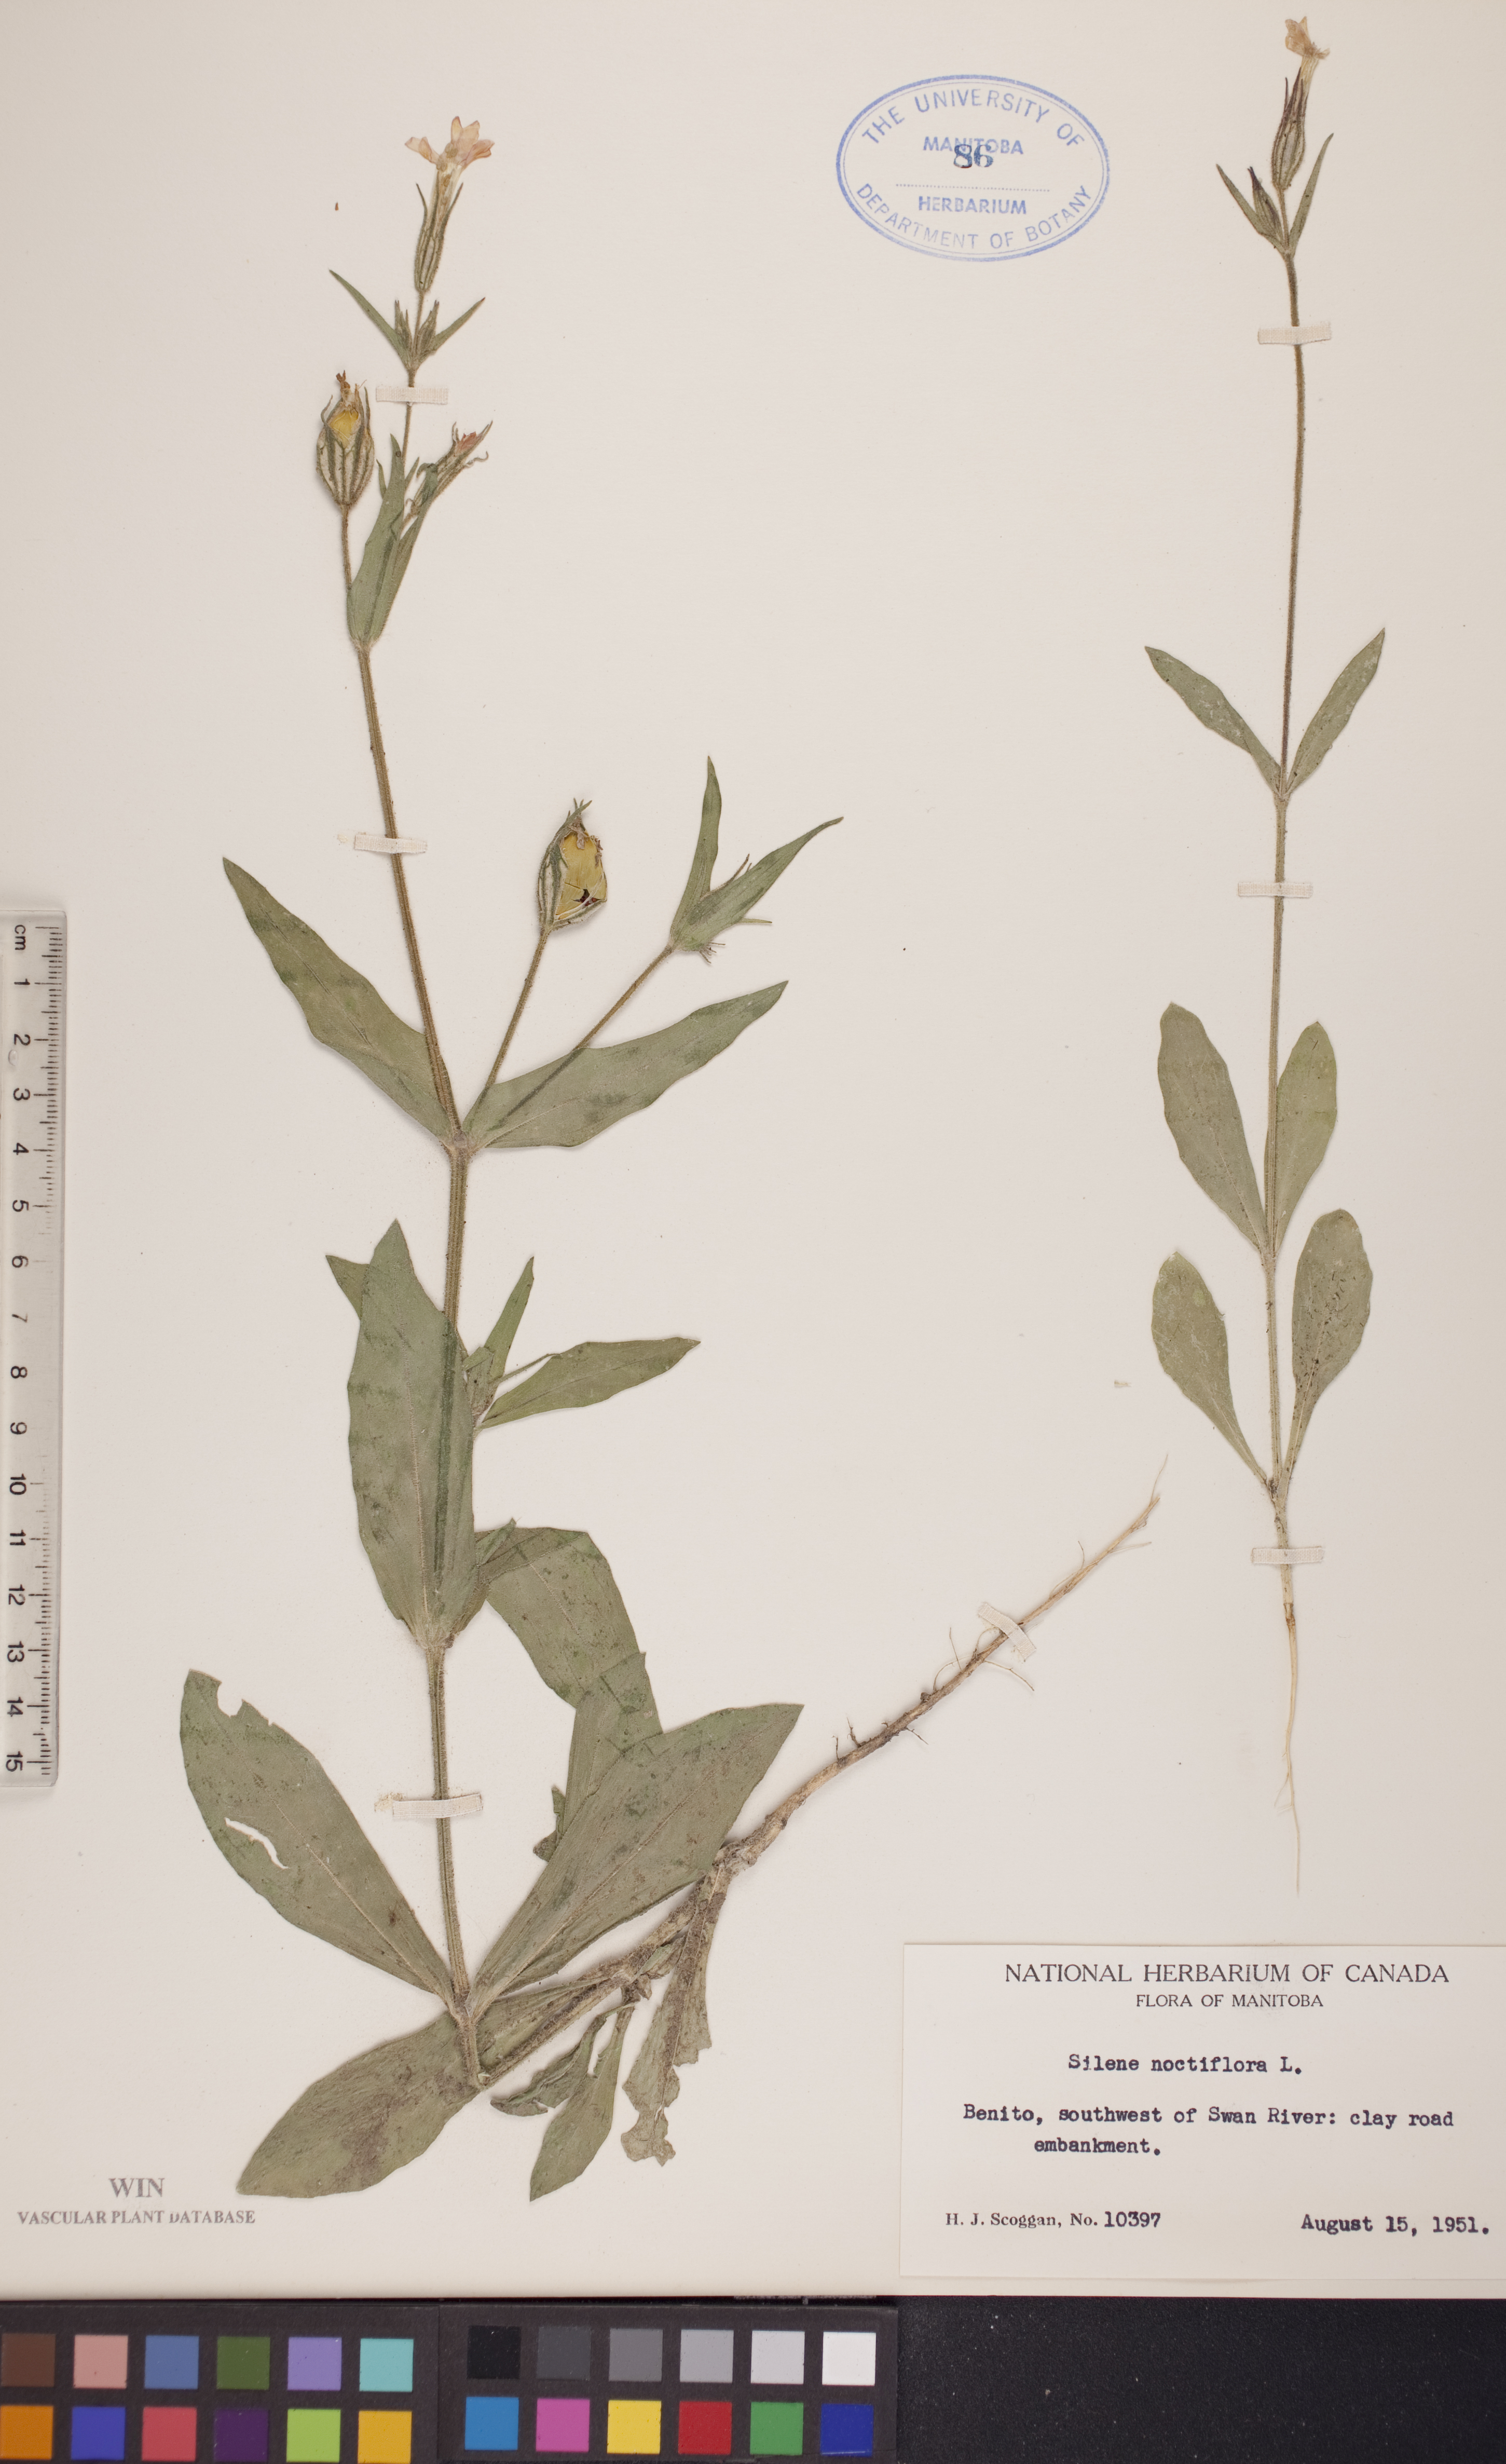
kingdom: Plantae
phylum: Tracheophyta
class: Magnoliopsida
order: Caryophyllales
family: Caryophyllaceae
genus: Silene
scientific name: Silene noctiflora
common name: Night-flowering catchfly
